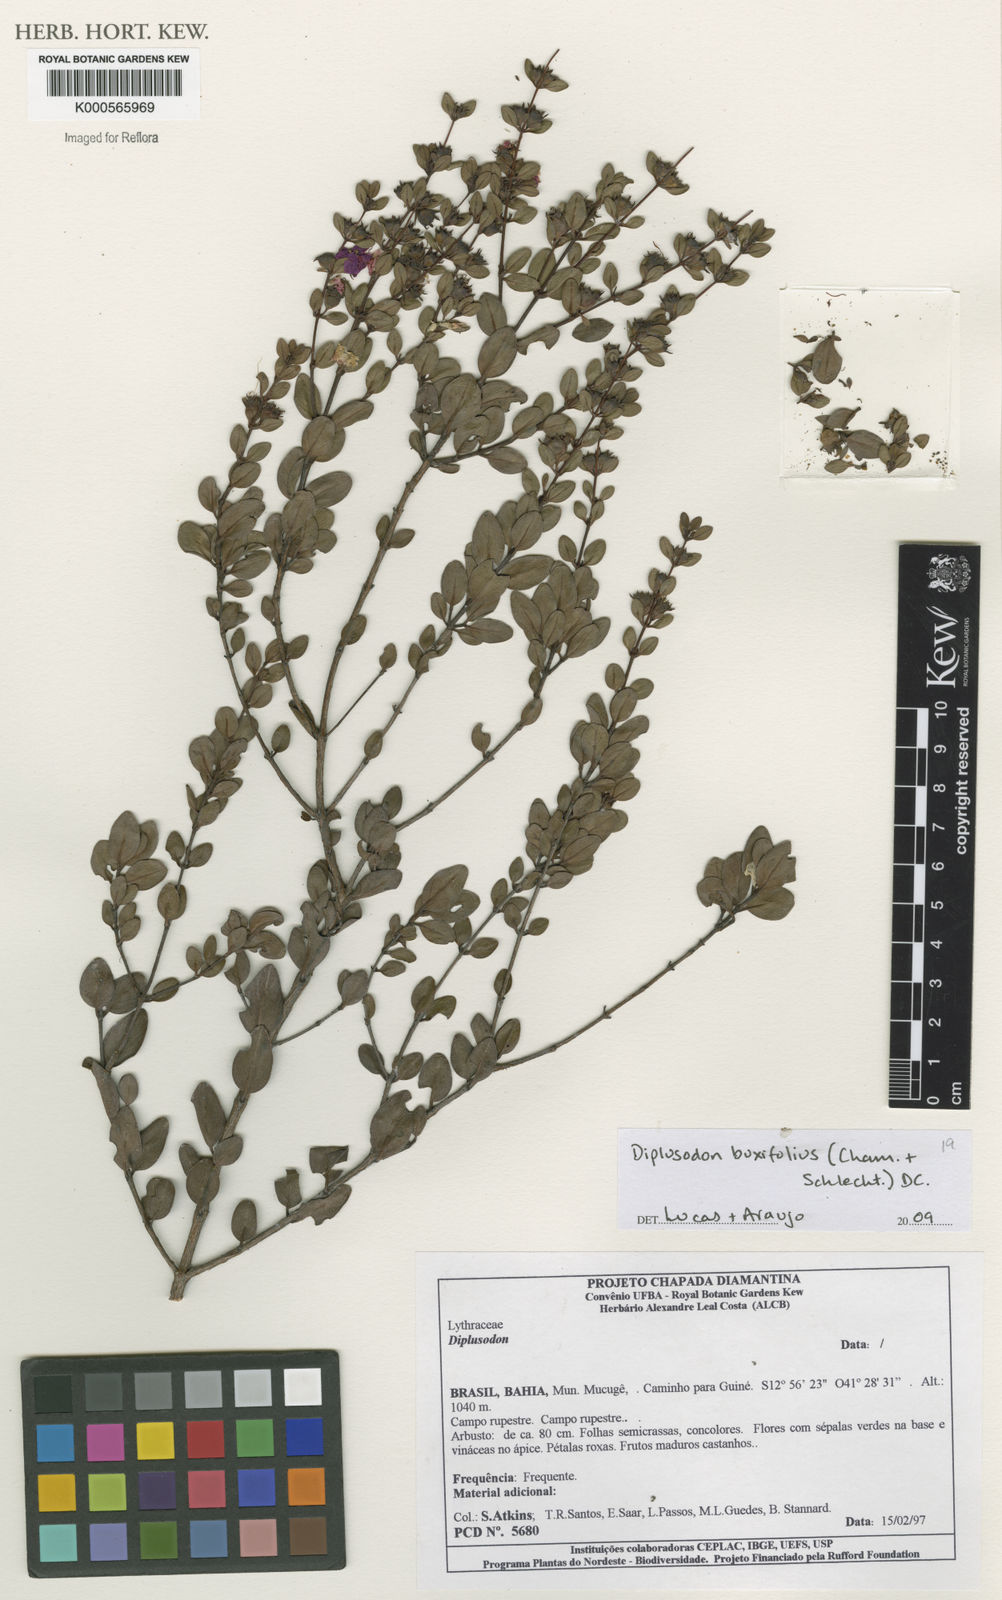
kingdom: Plantae
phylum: Tracheophyta
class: Magnoliopsida
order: Myrtales
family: Lythraceae
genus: Diplusodon
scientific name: Diplusodon buxifolius
